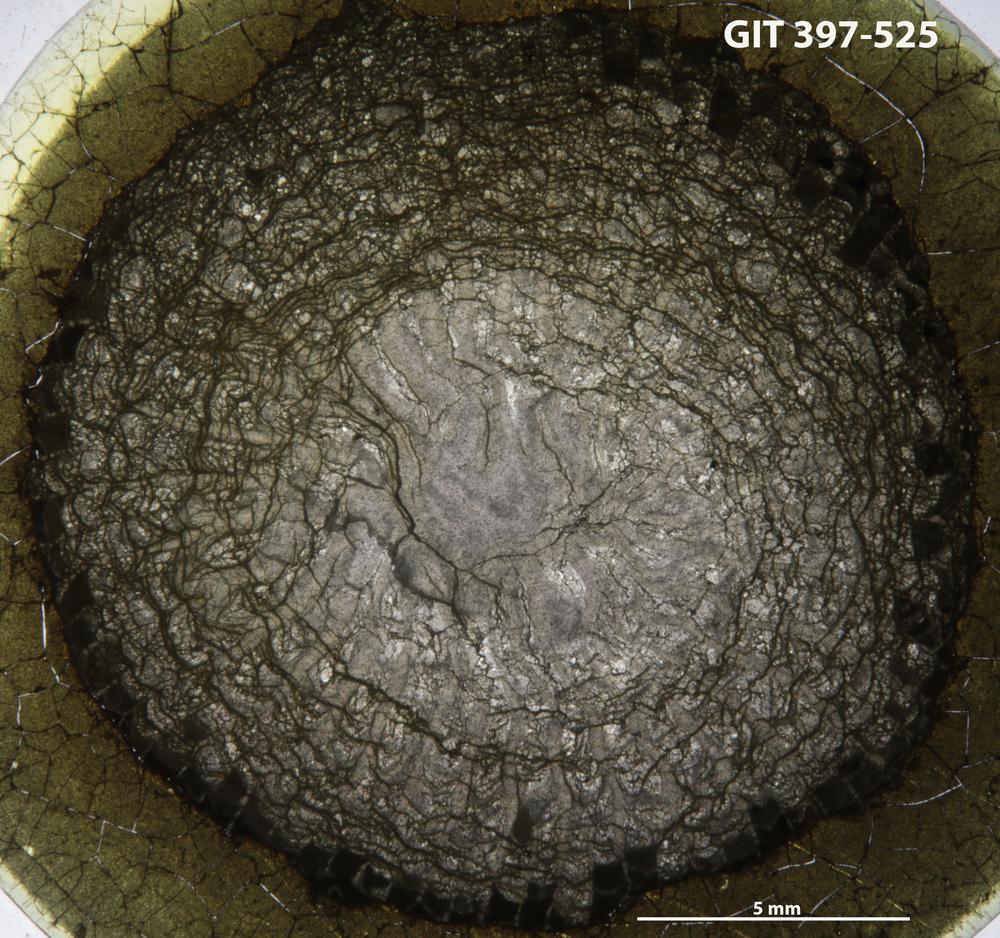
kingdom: Animalia
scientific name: Animalia
